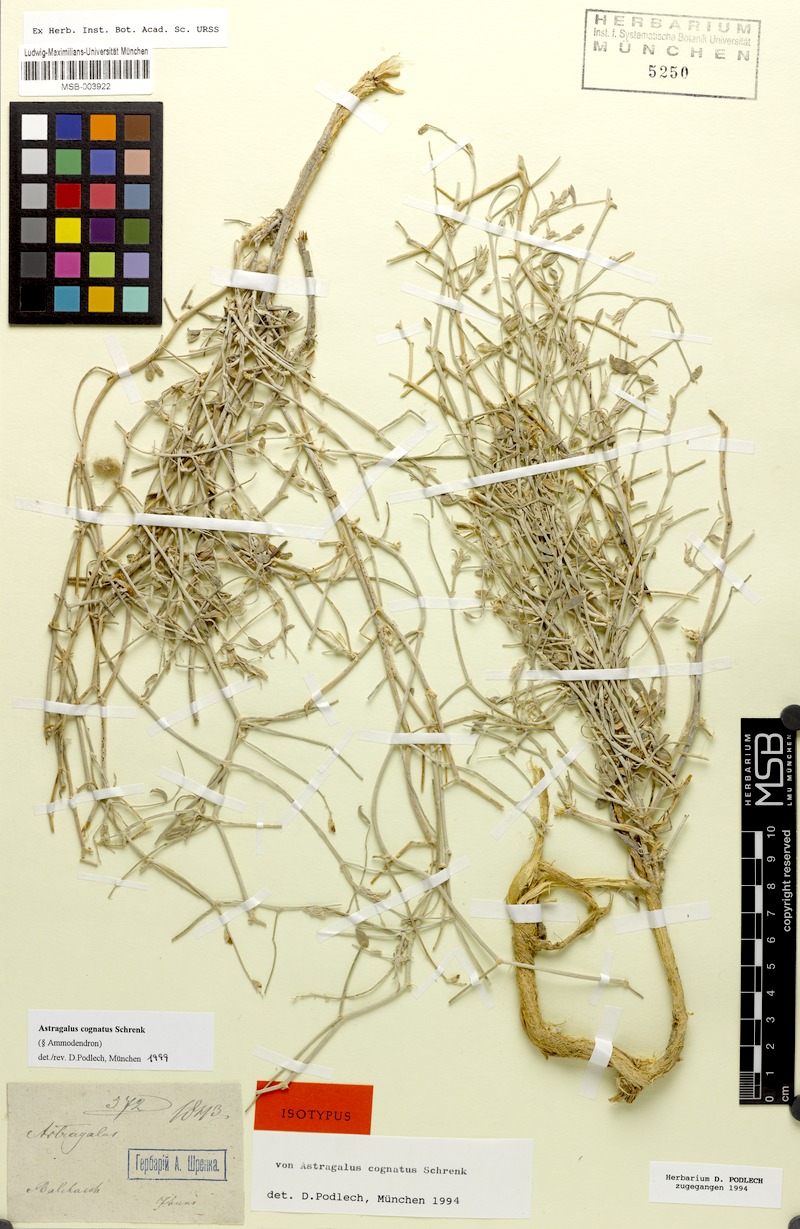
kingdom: Plantae
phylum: Tracheophyta
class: Magnoliopsida
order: Fabales
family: Fabaceae
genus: Astragalus
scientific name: Astragalus cognatus
